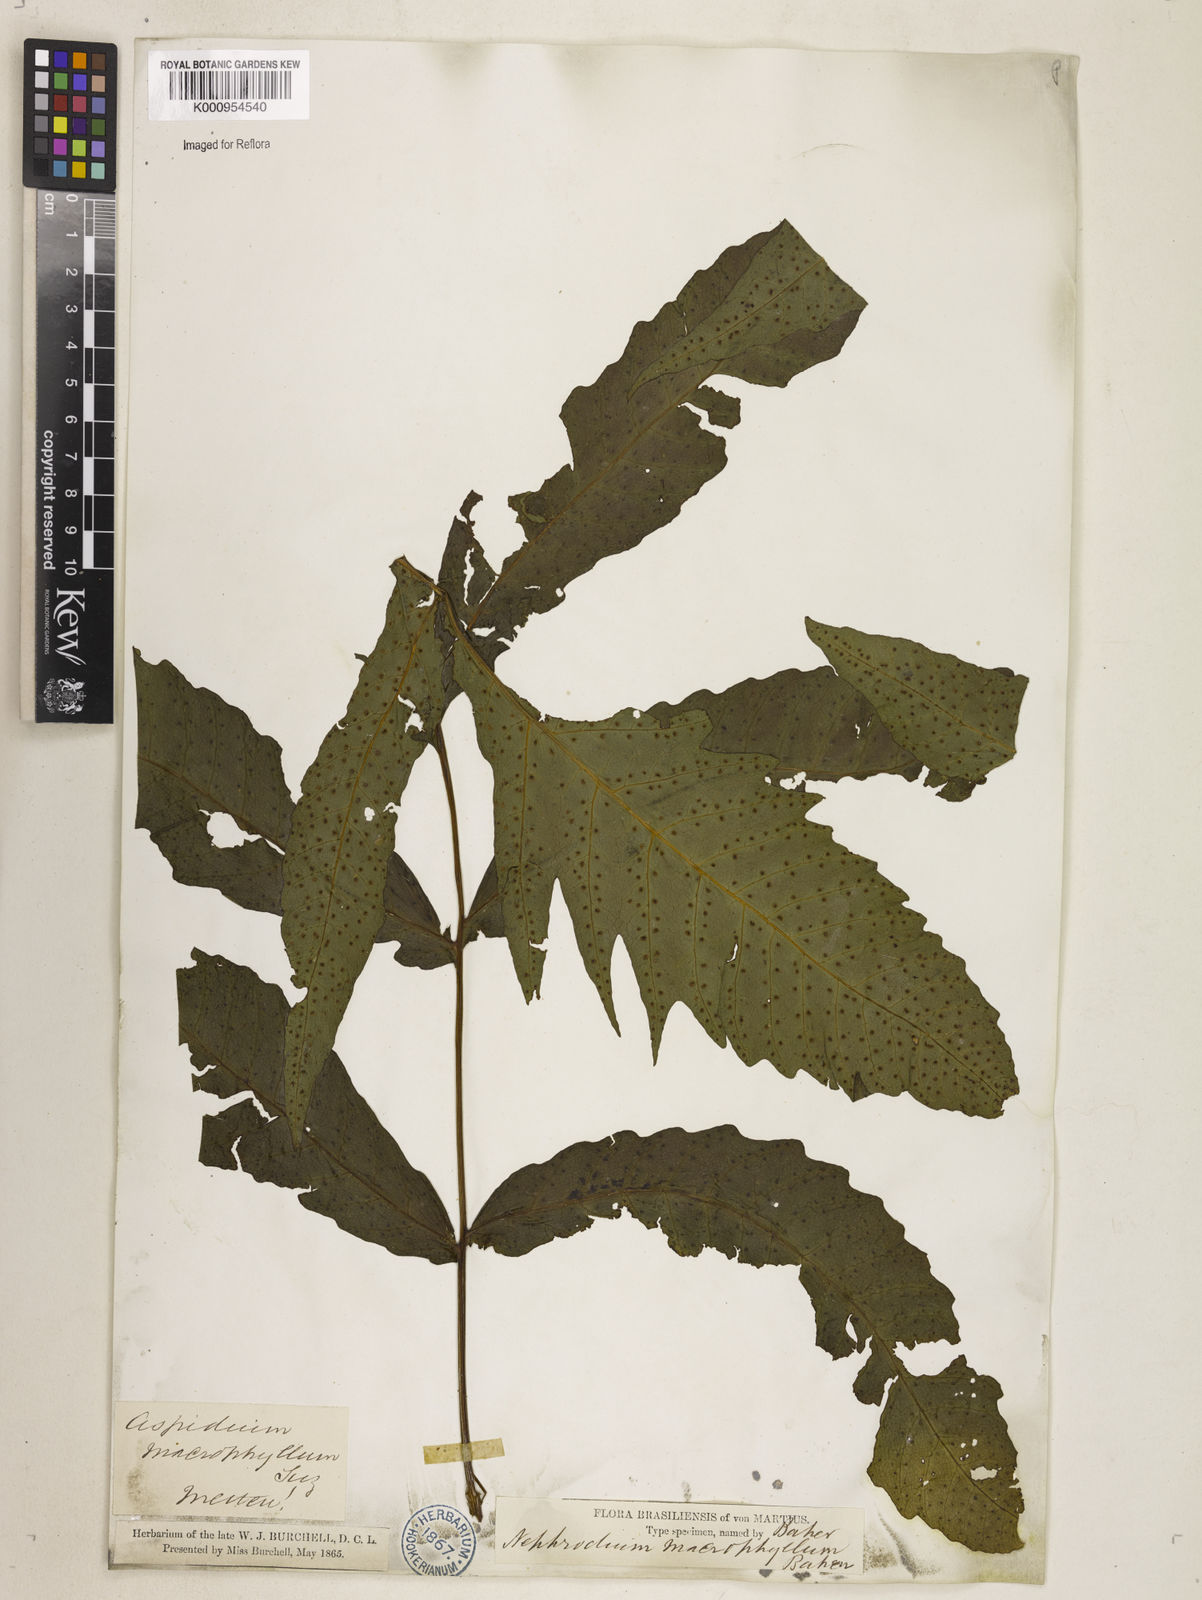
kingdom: Plantae
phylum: Tracheophyta
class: Polypodiopsida
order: Polypodiales
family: Tectariaceae
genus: Tectaria
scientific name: Tectaria incisa
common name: Incised halberd fern
